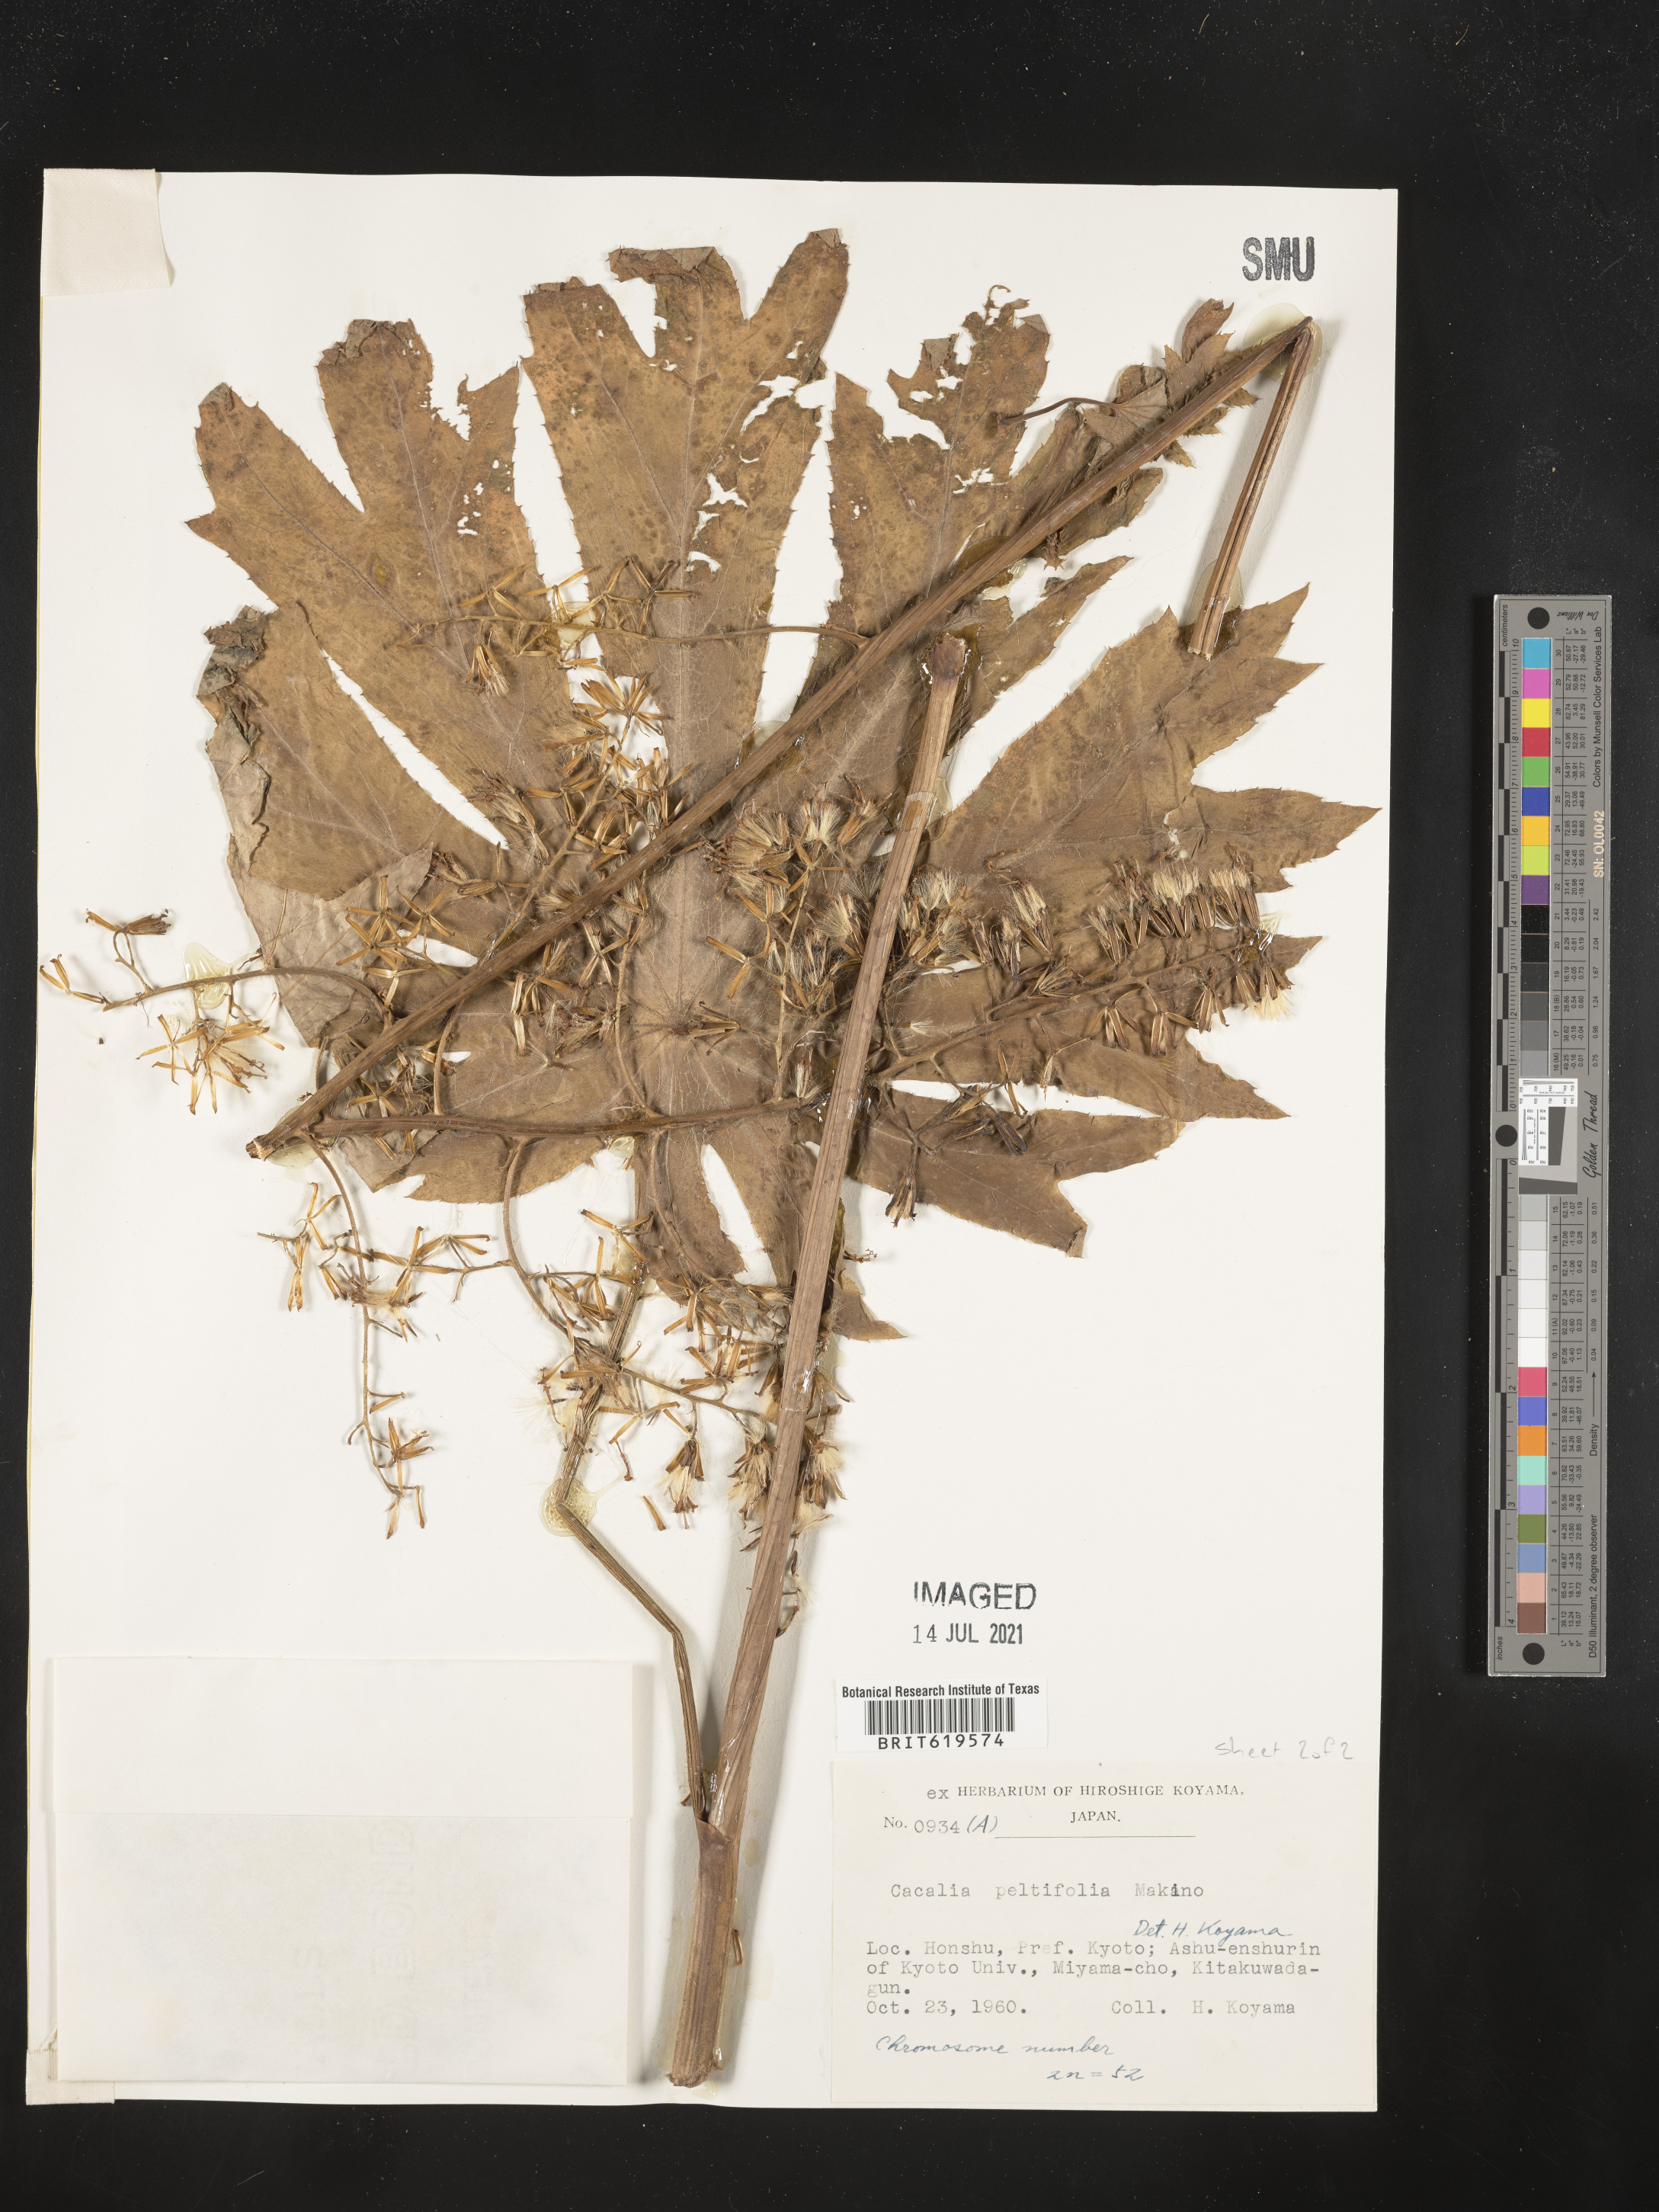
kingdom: Plantae
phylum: Tracheophyta
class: Magnoliopsida
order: Asterales
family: Asteraceae
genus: Parasenecio
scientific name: Parasenecio peltifolius
